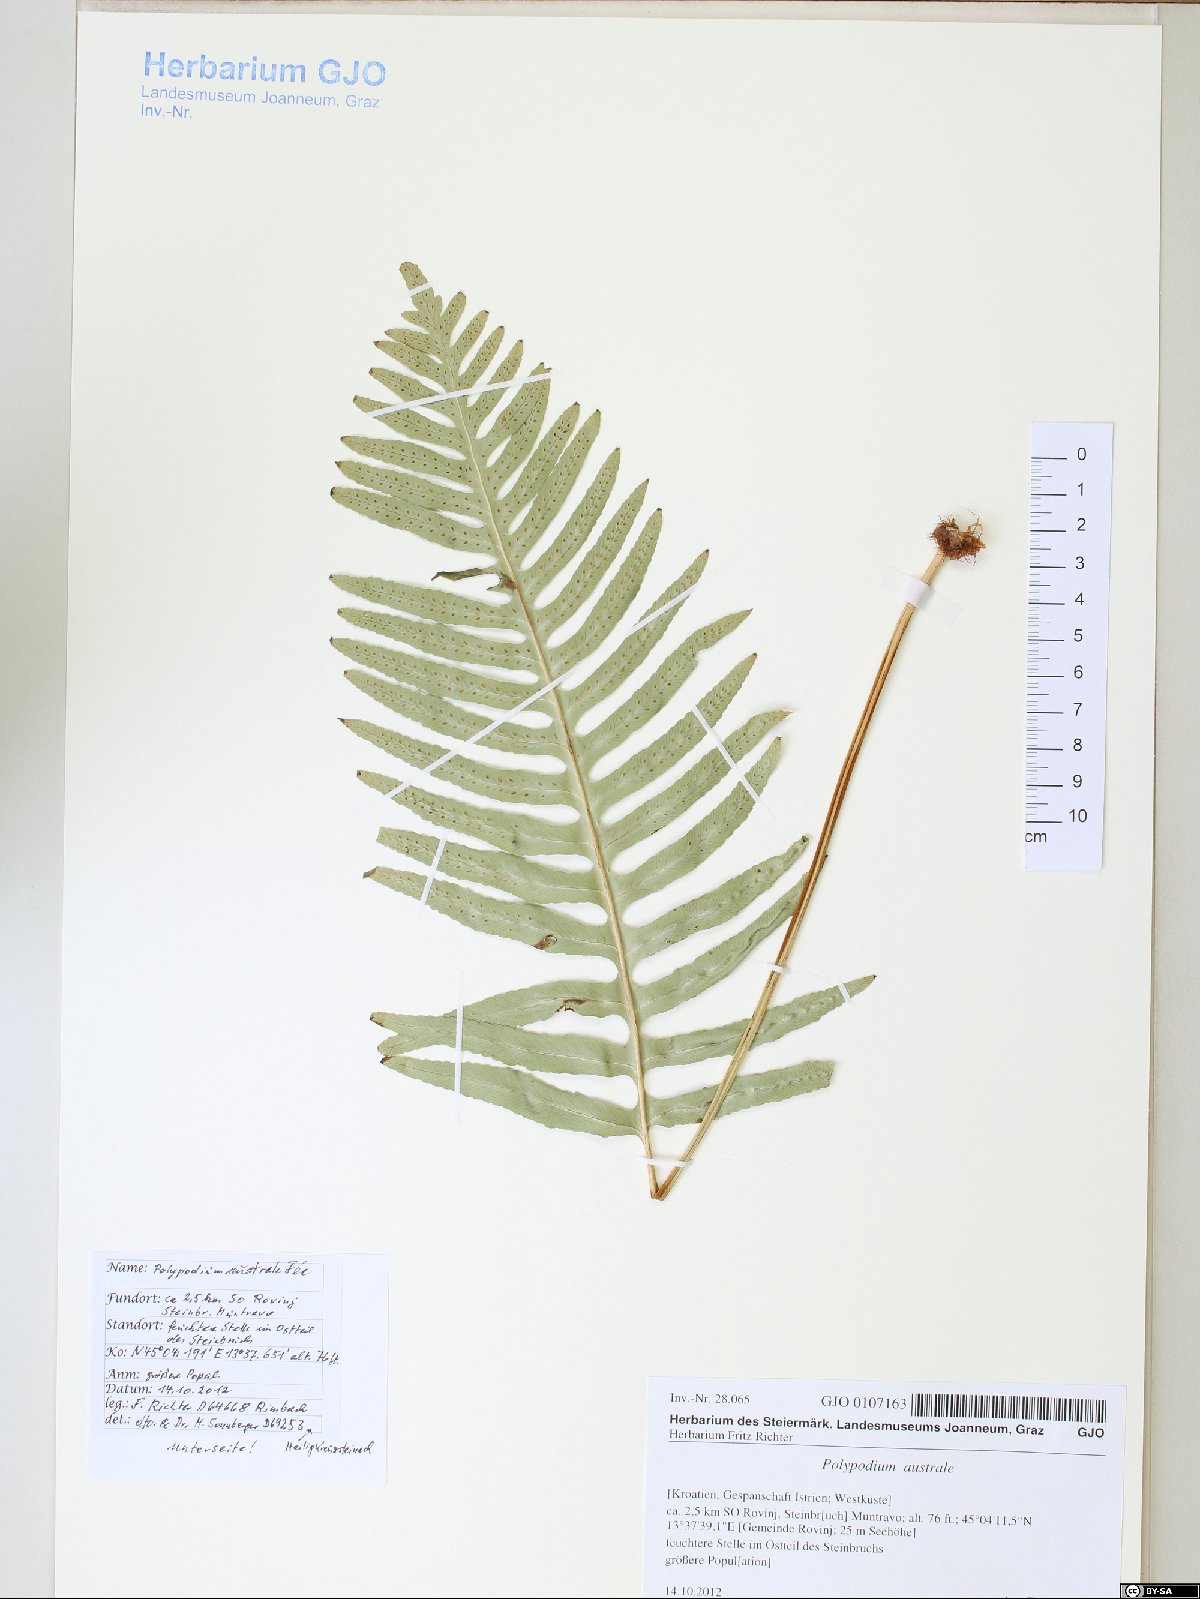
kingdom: Plantae
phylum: Tracheophyta
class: Polypodiopsida
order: Polypodiales
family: Polypodiaceae
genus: Polypodium
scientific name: Polypodium cambricum
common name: Southern polypody
